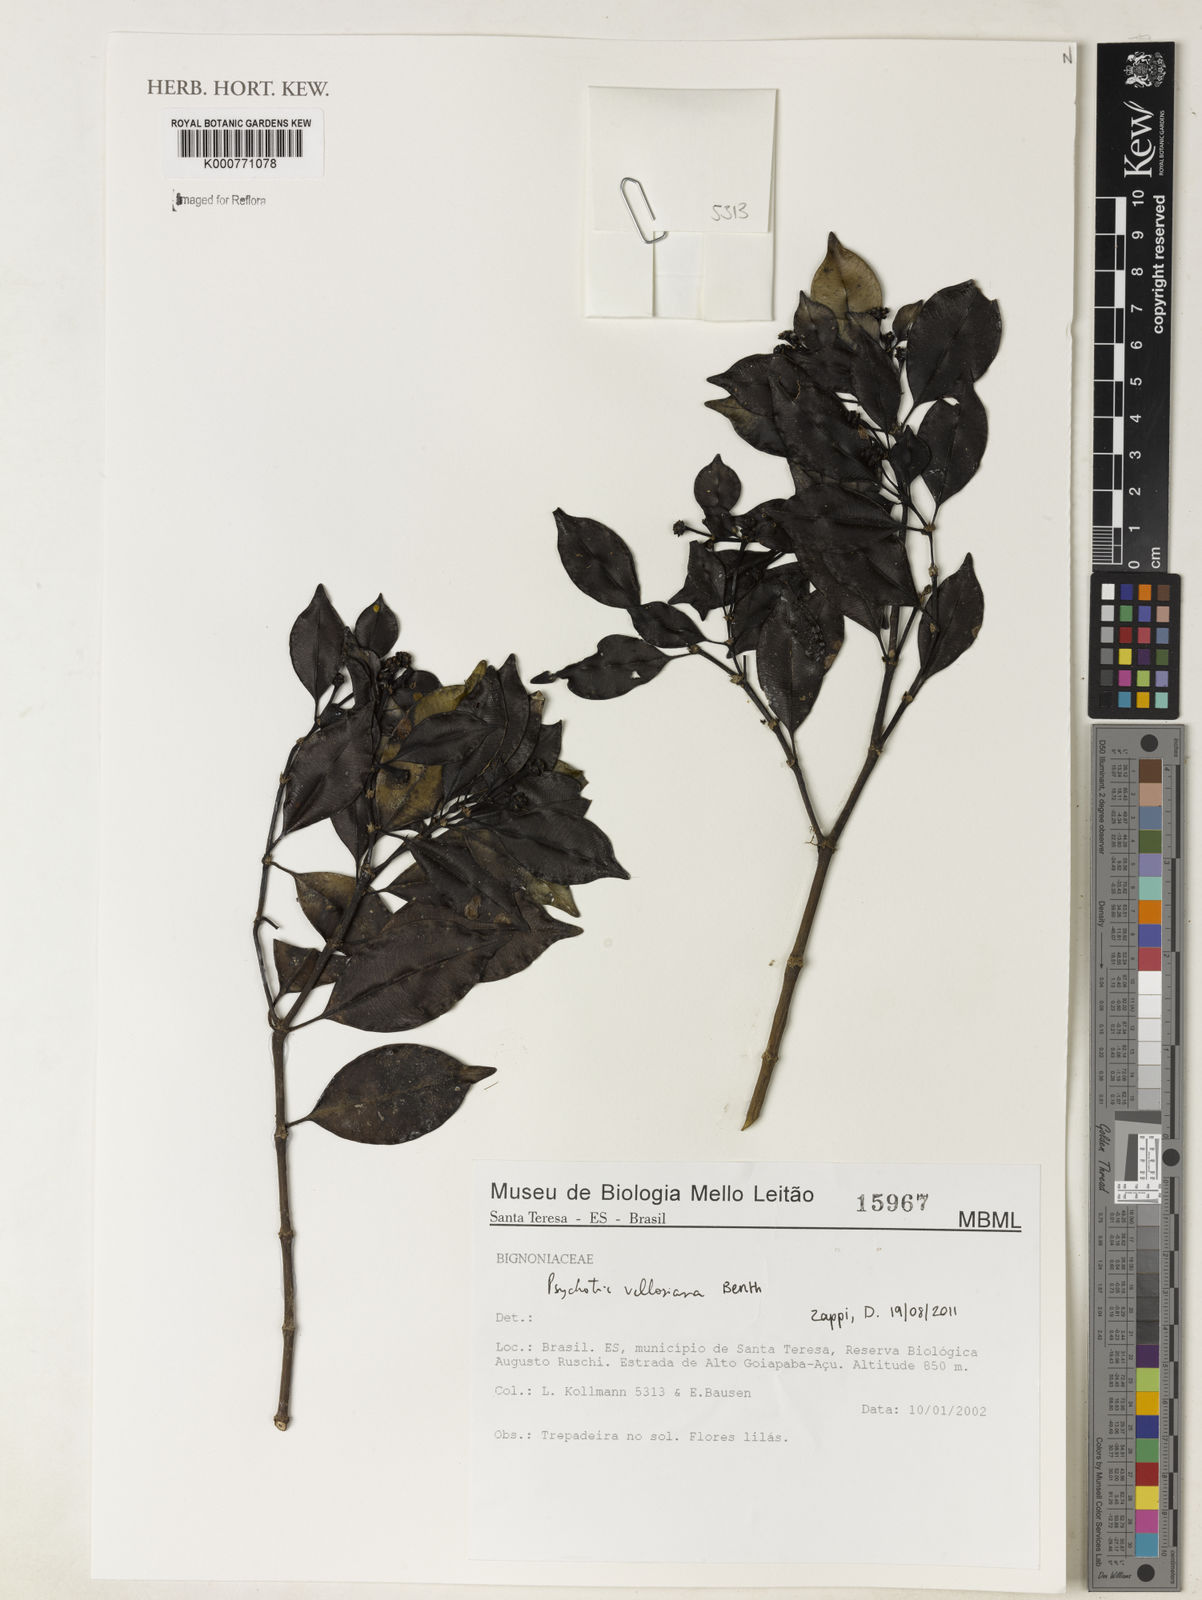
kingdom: Plantae
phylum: Tracheophyta
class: Magnoliopsida
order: Gentianales
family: Rubiaceae
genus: Palicourea
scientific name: Palicourea sessilis
